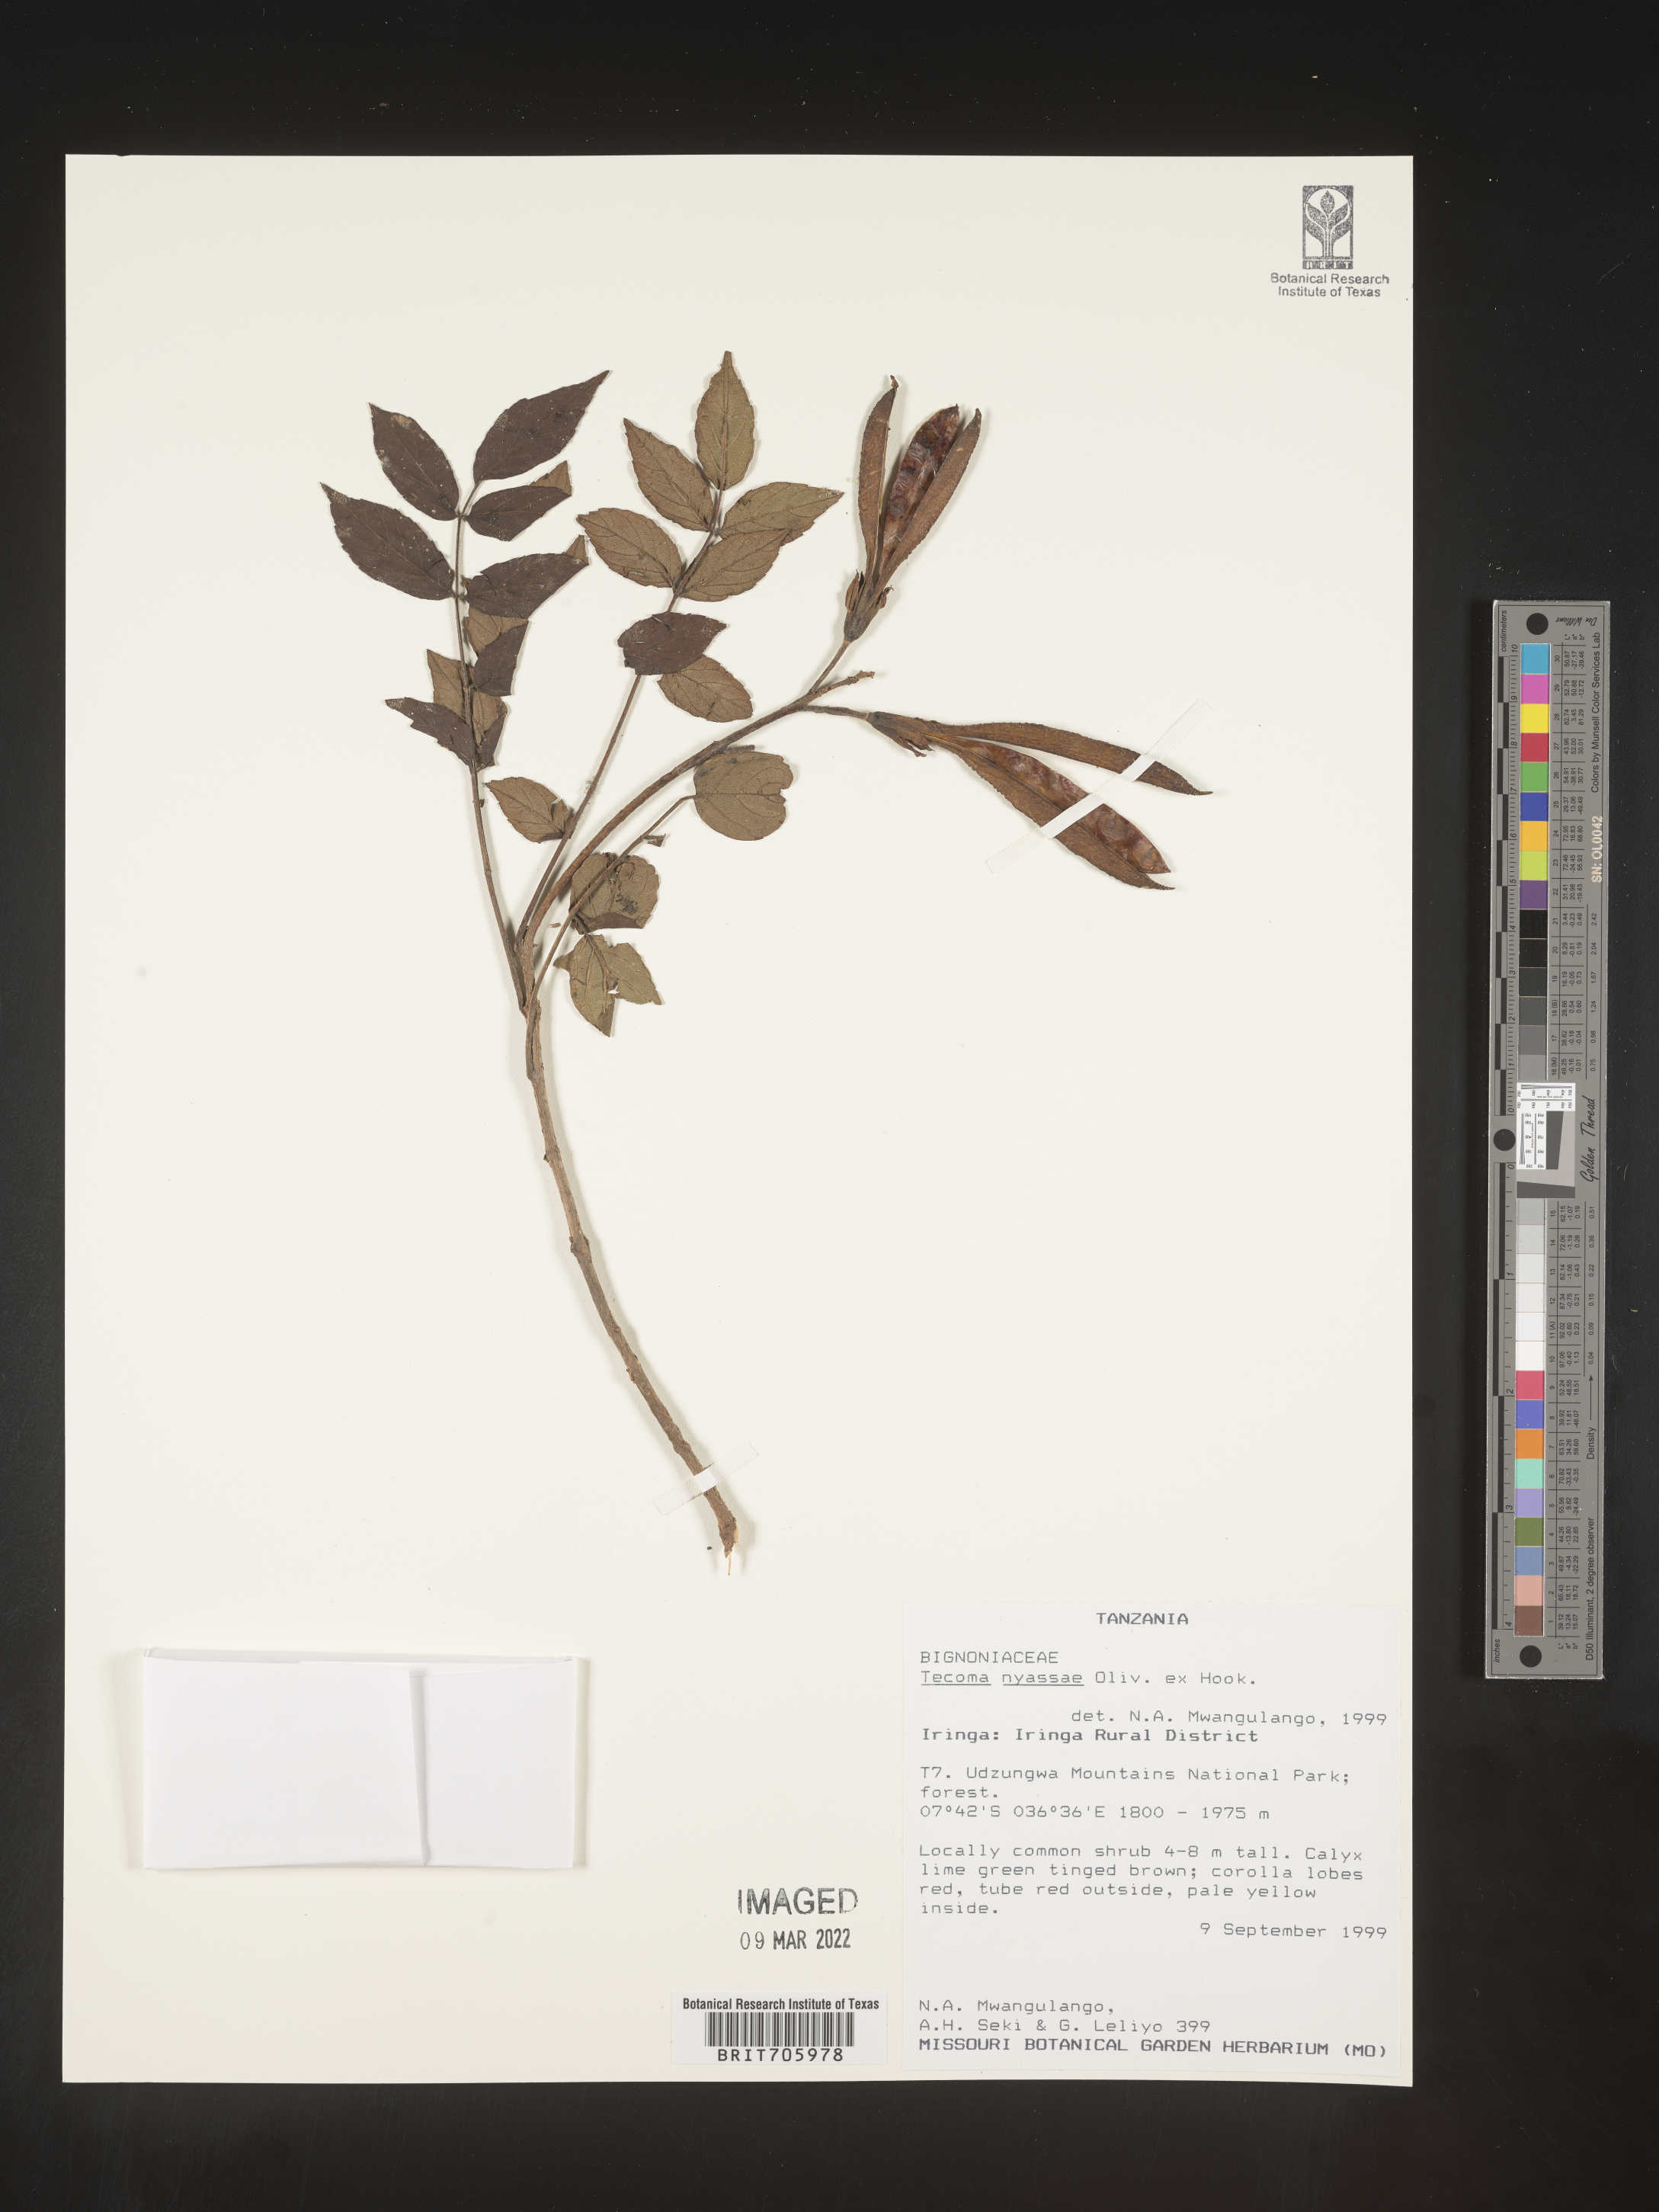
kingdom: Plantae
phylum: Tracheophyta
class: Magnoliopsida
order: Lamiales
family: Bignoniaceae
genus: Tecoma
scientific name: Tecoma
